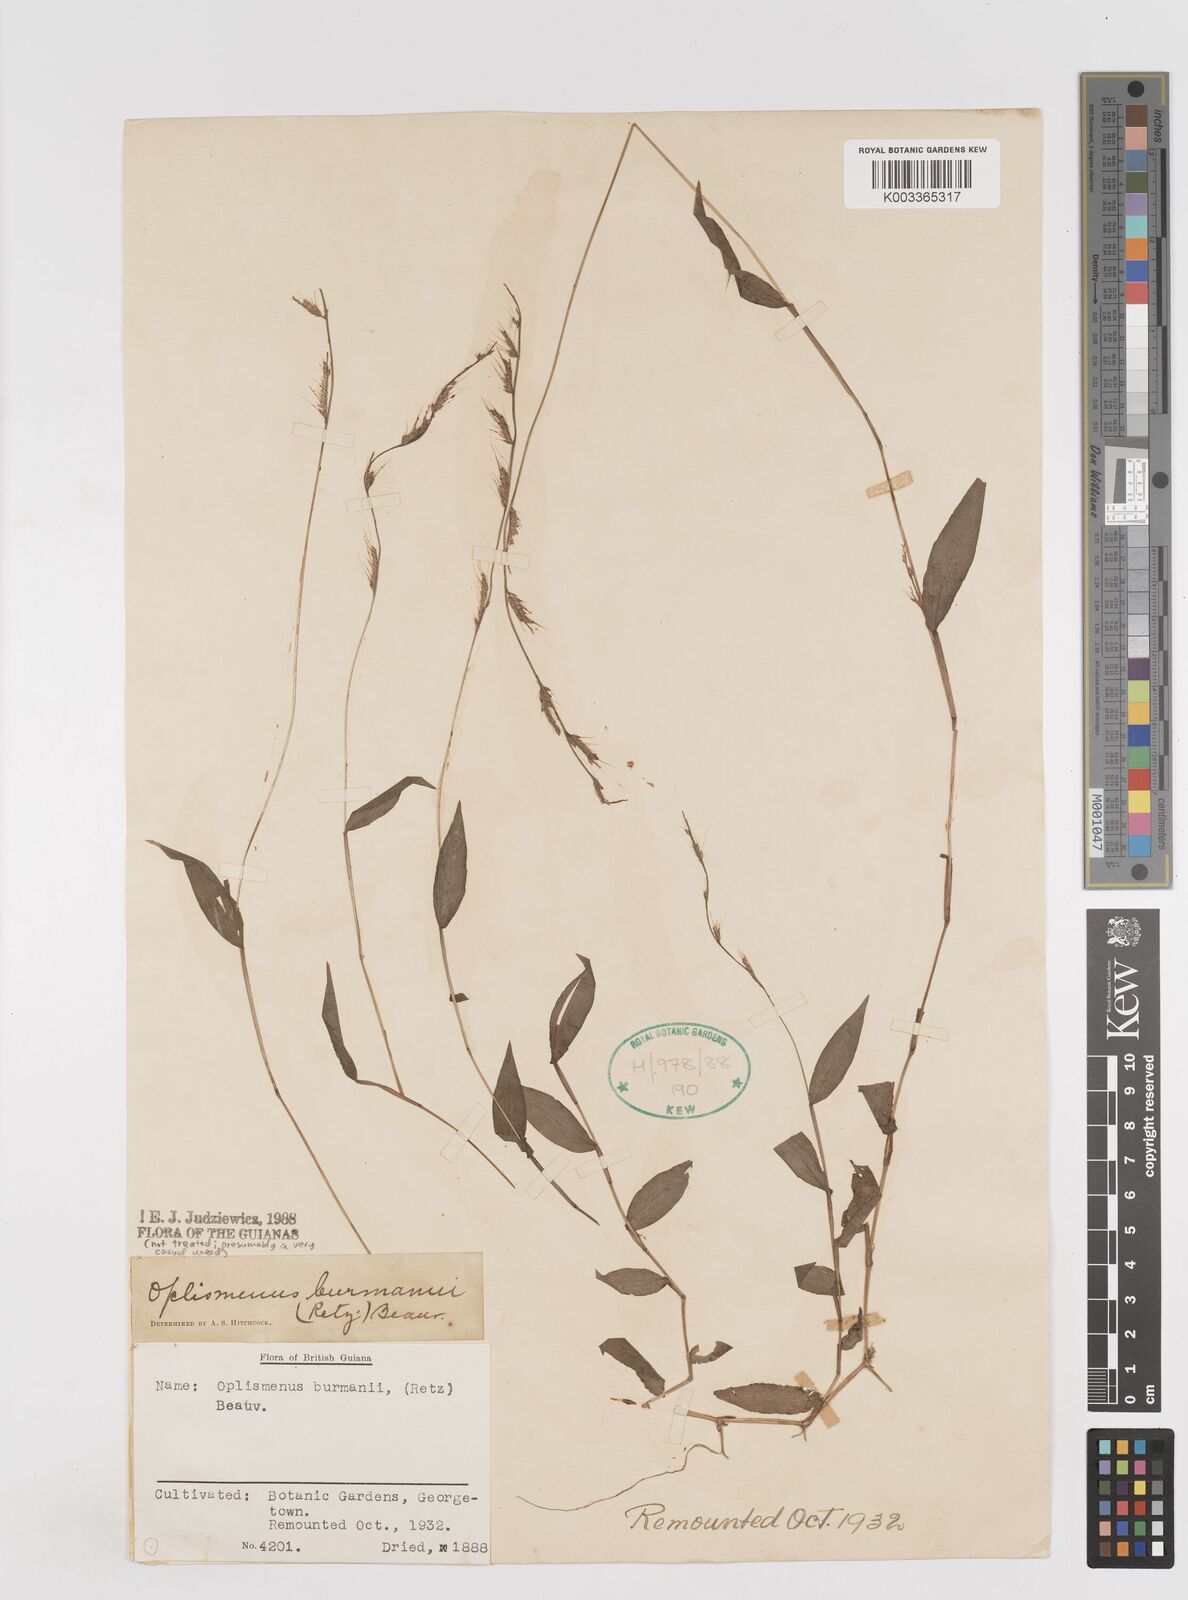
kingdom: Plantae
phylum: Tracheophyta
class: Liliopsida
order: Poales
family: Poaceae
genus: Oplismenus
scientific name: Oplismenus burmanni
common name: Burmann's basketgrass
